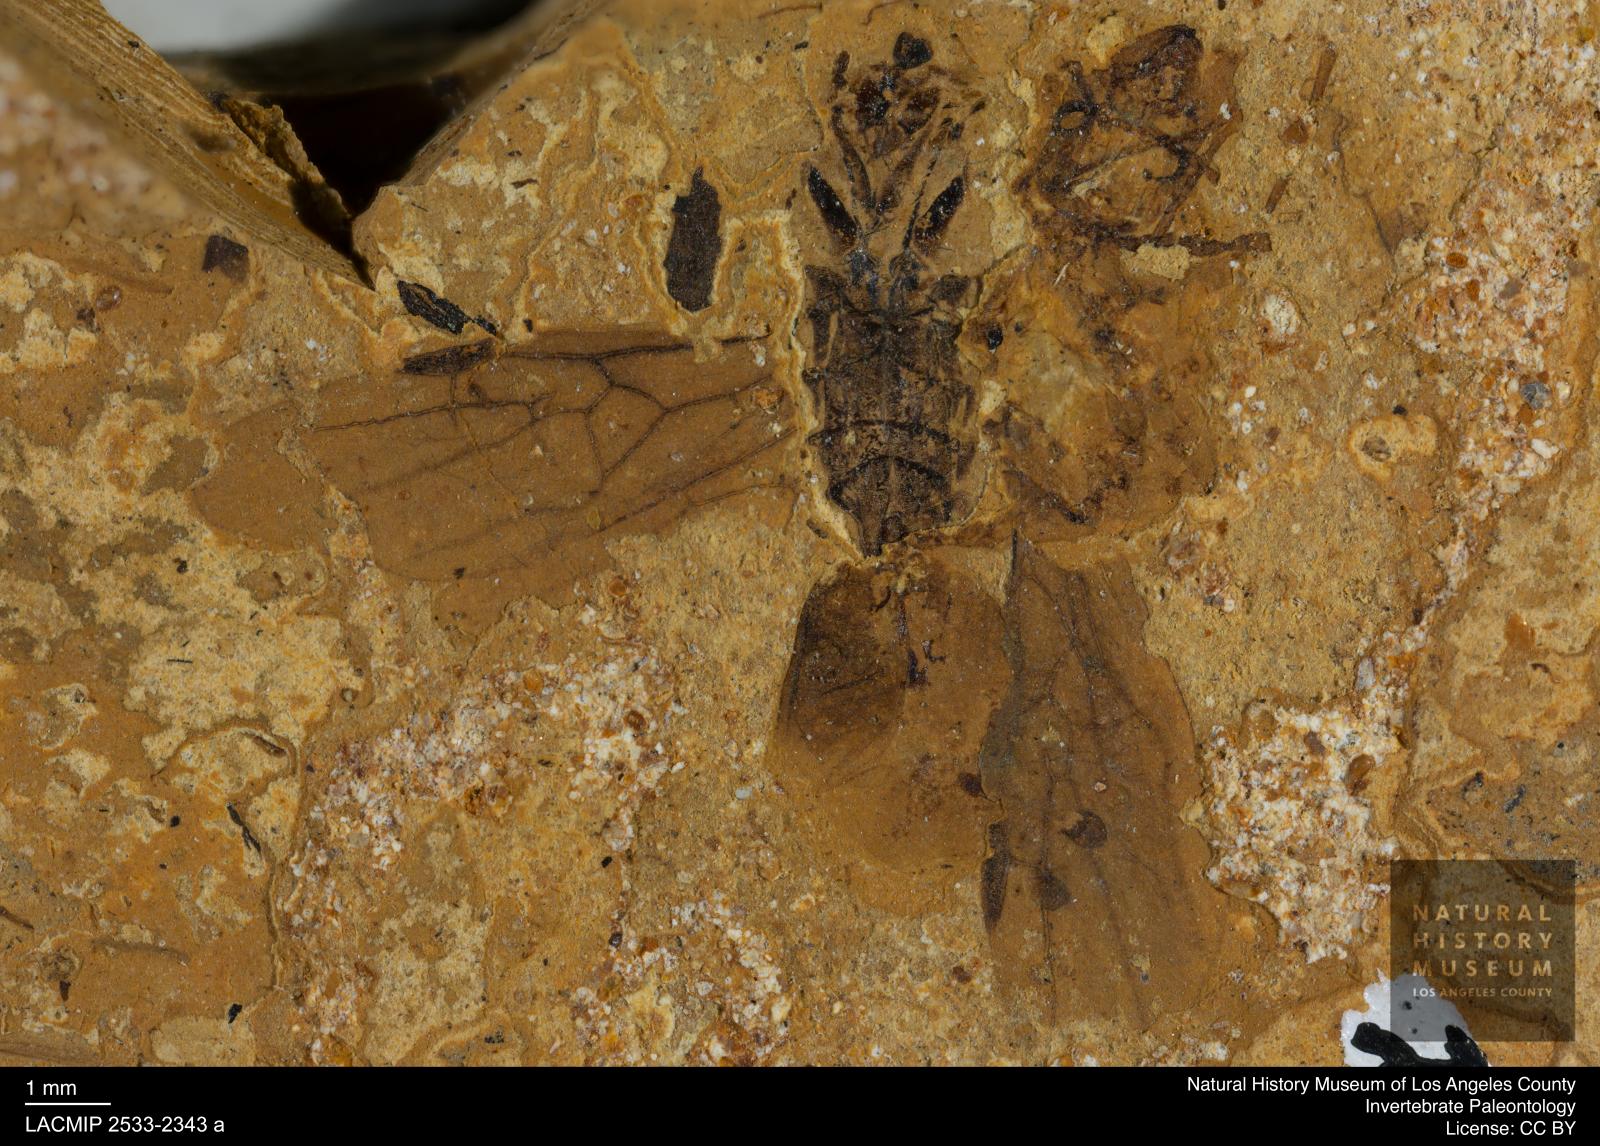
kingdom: Animalia
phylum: Arthropoda
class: Insecta
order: Hymenoptera
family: Formicidae
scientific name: Formicidae
